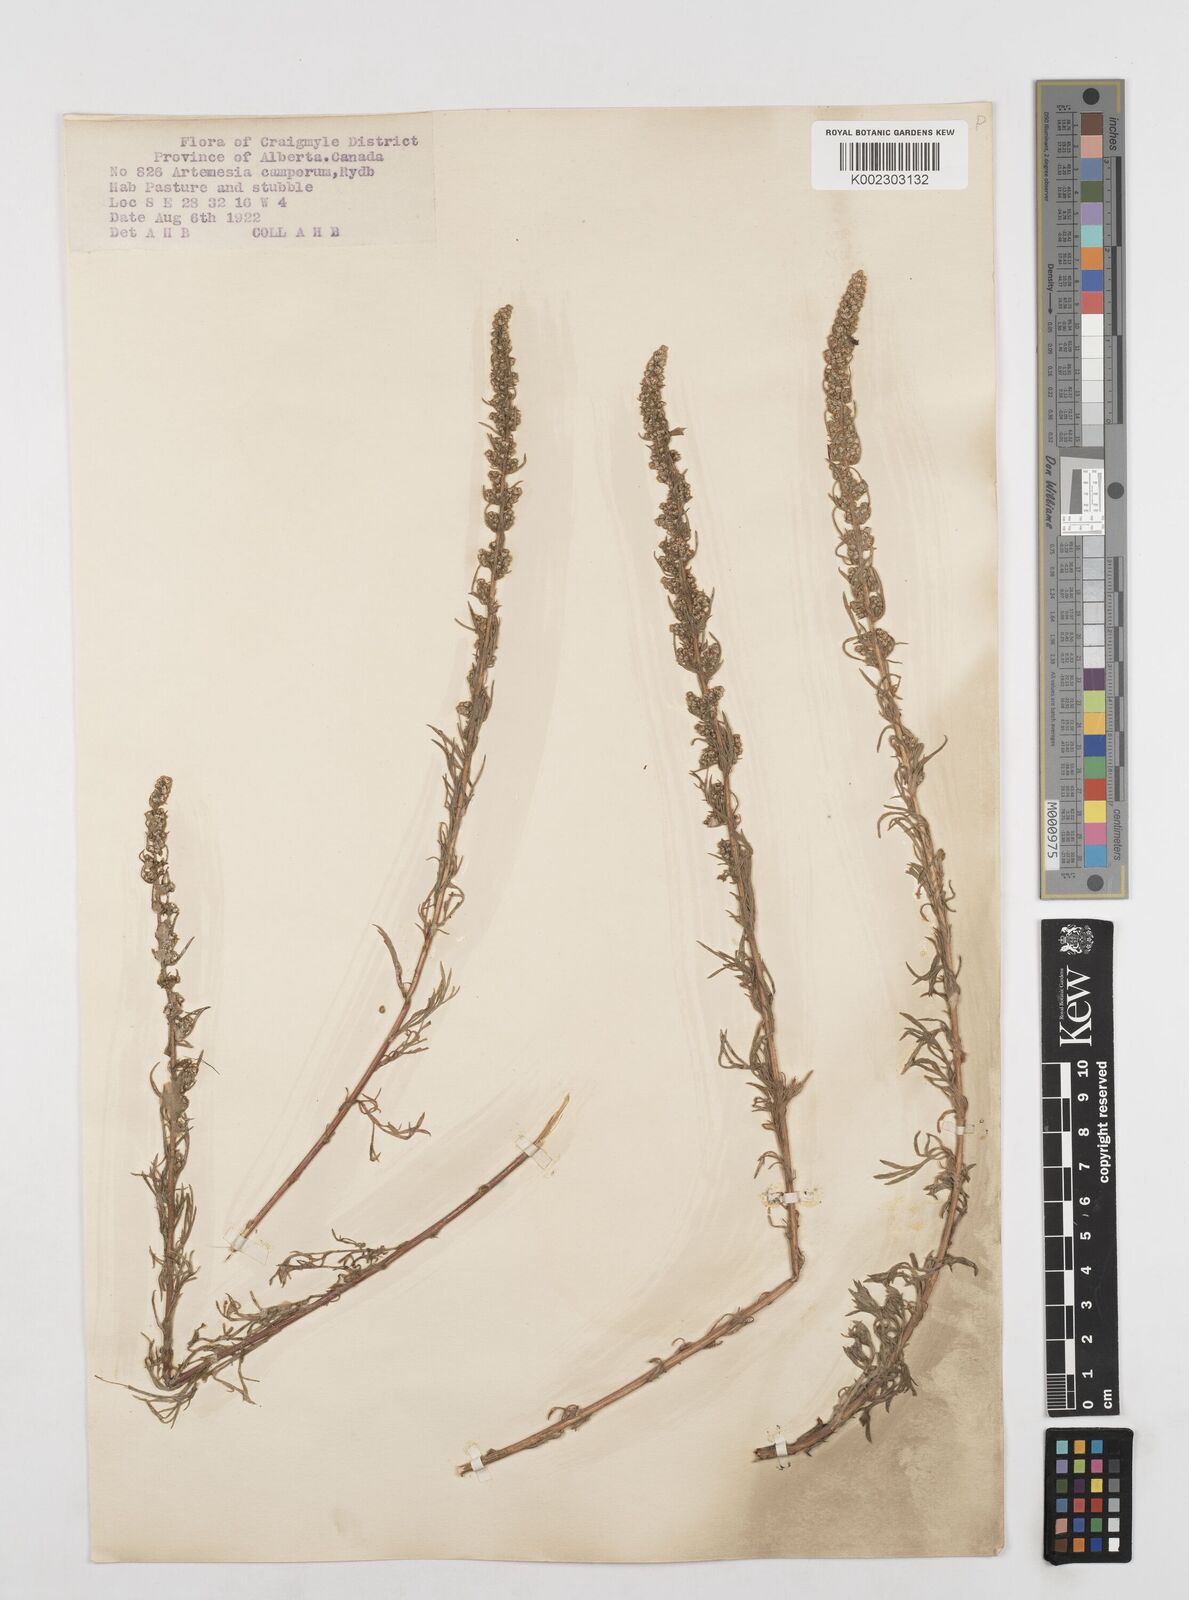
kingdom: Plantae
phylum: Tracheophyta
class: Magnoliopsida
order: Asterales
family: Asteraceae
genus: Artemisia
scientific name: Artemisia campestris
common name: Field wormwood
